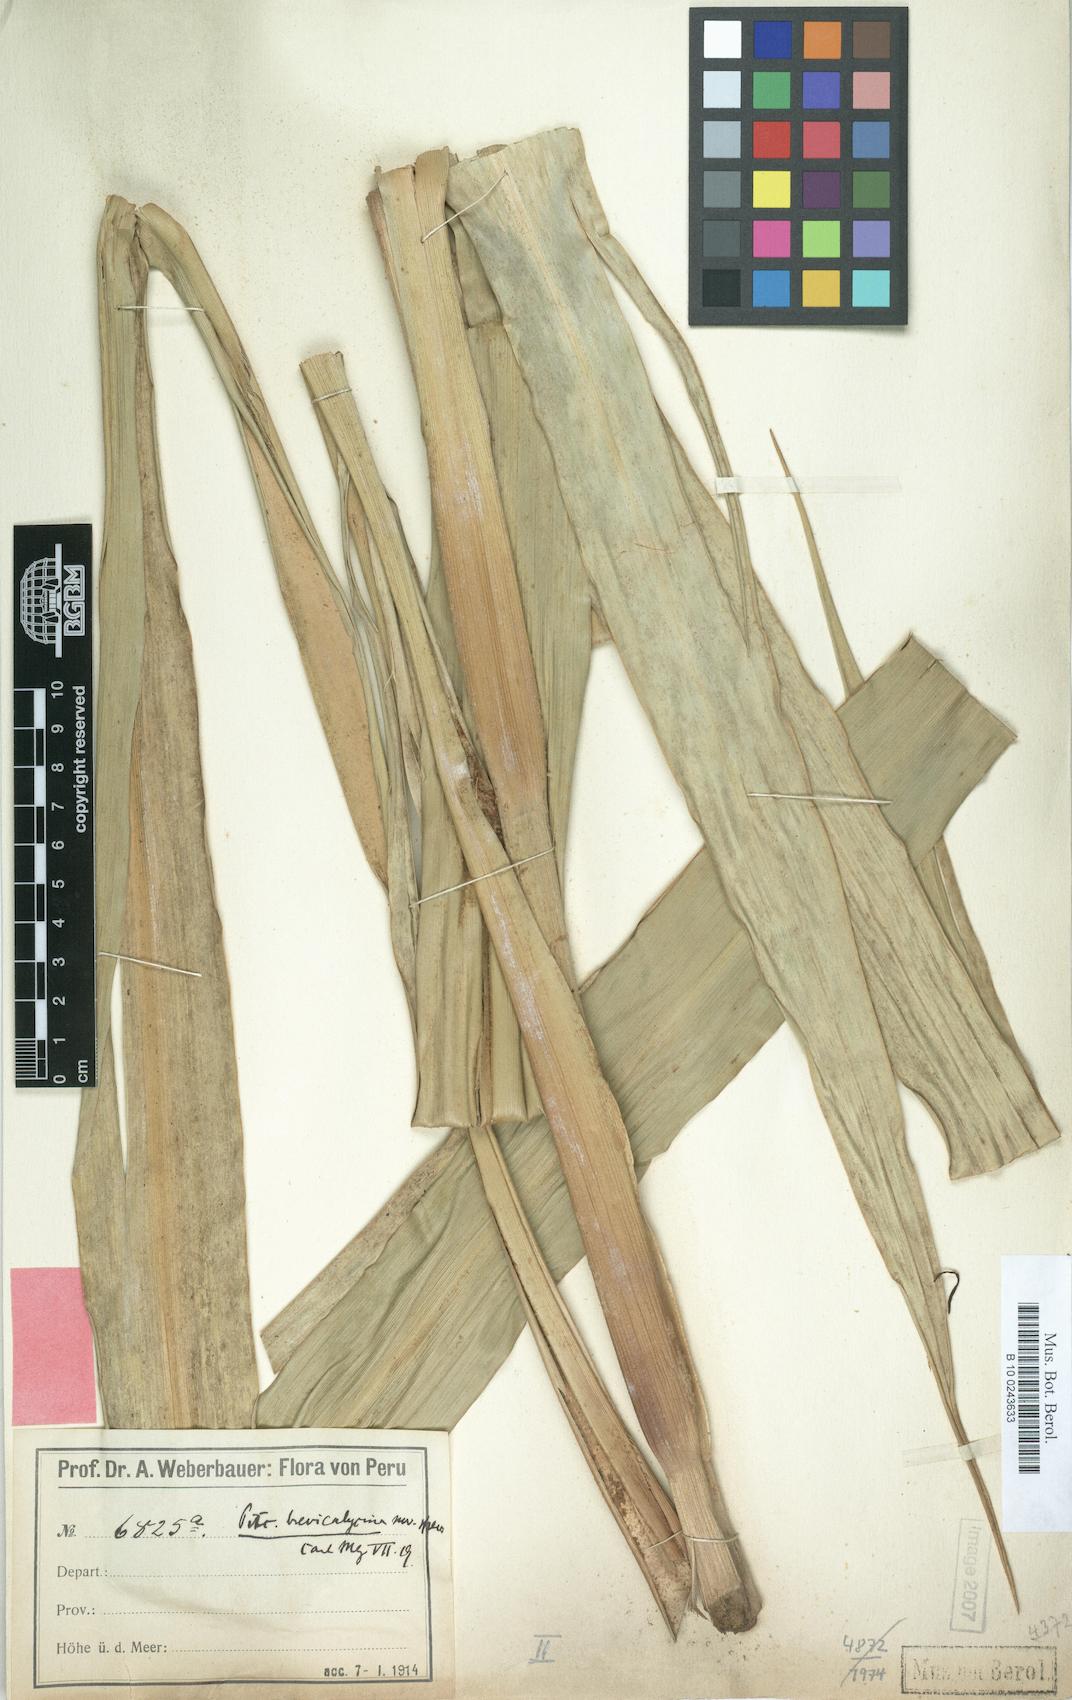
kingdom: Plantae
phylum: Tracheophyta
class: Liliopsida
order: Poales
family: Bromeliaceae
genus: Pitcairnia
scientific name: Pitcairnia brevicalycina
